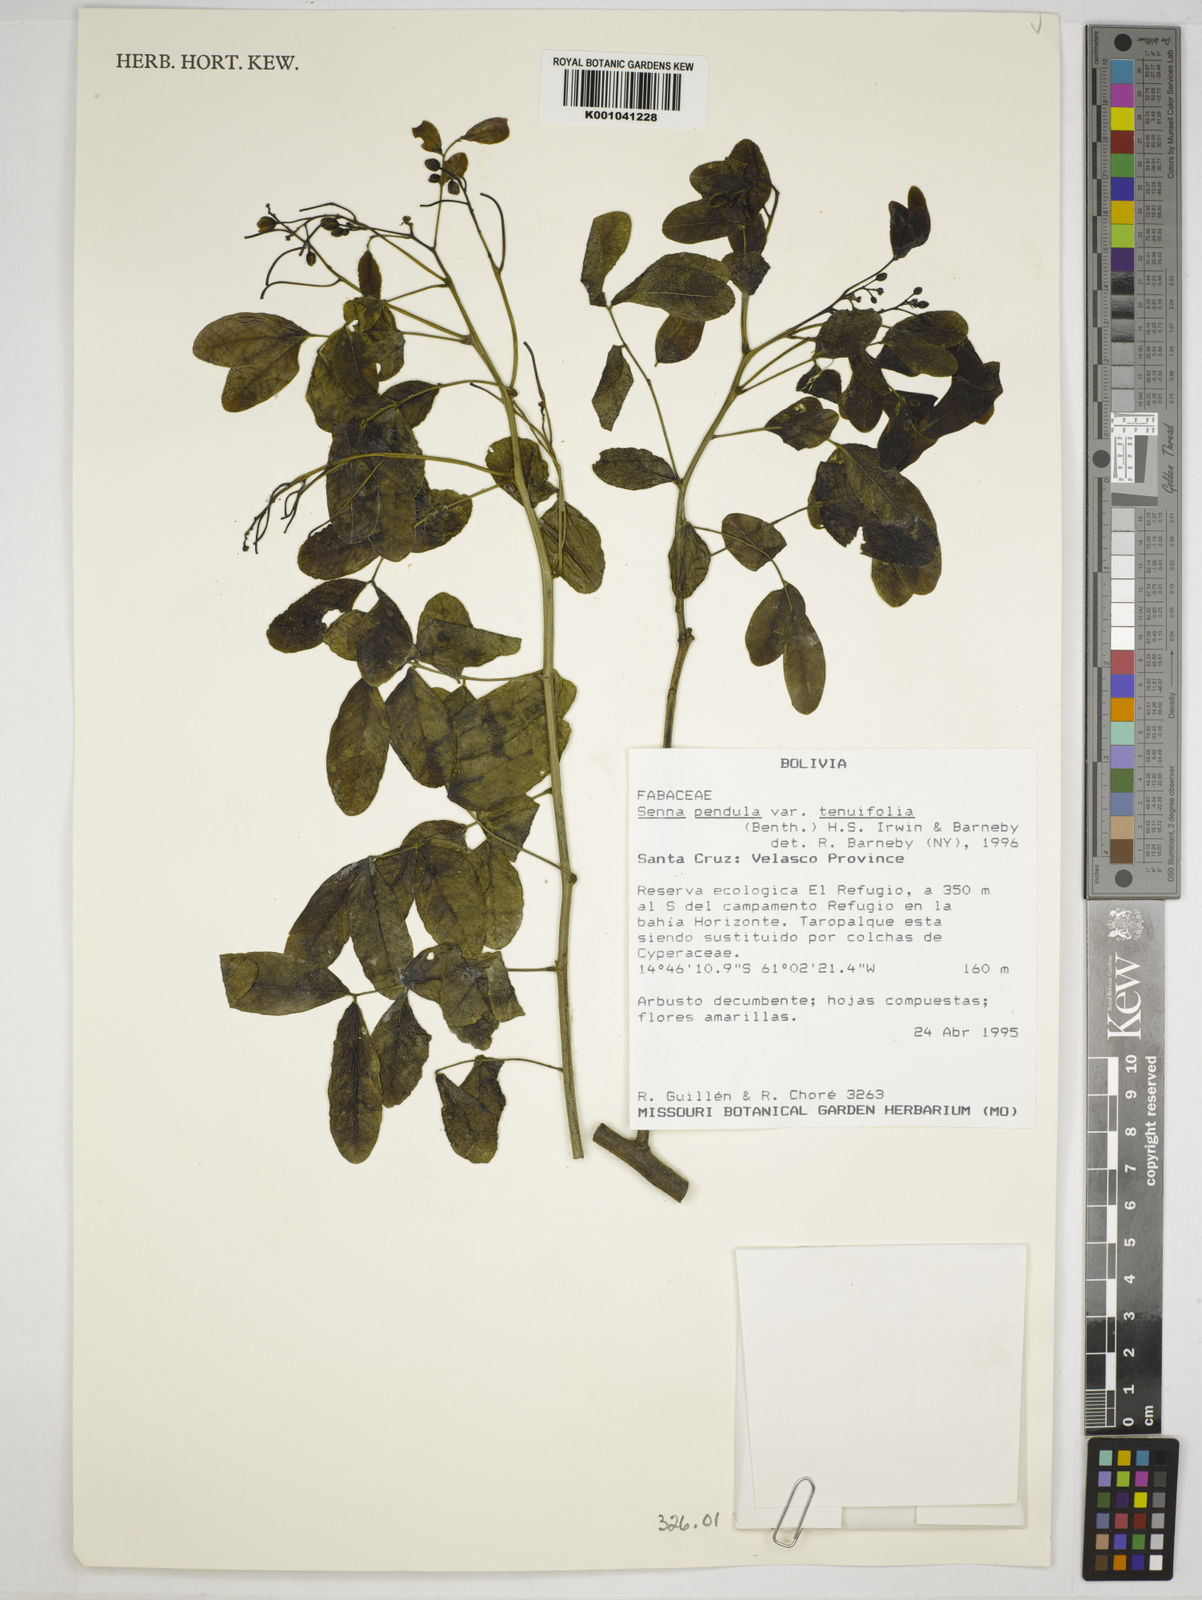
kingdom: Plantae
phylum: Tracheophyta
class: Magnoliopsida
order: Fabales
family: Fabaceae
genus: Senna
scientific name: Senna pendula
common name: Easter cassia
